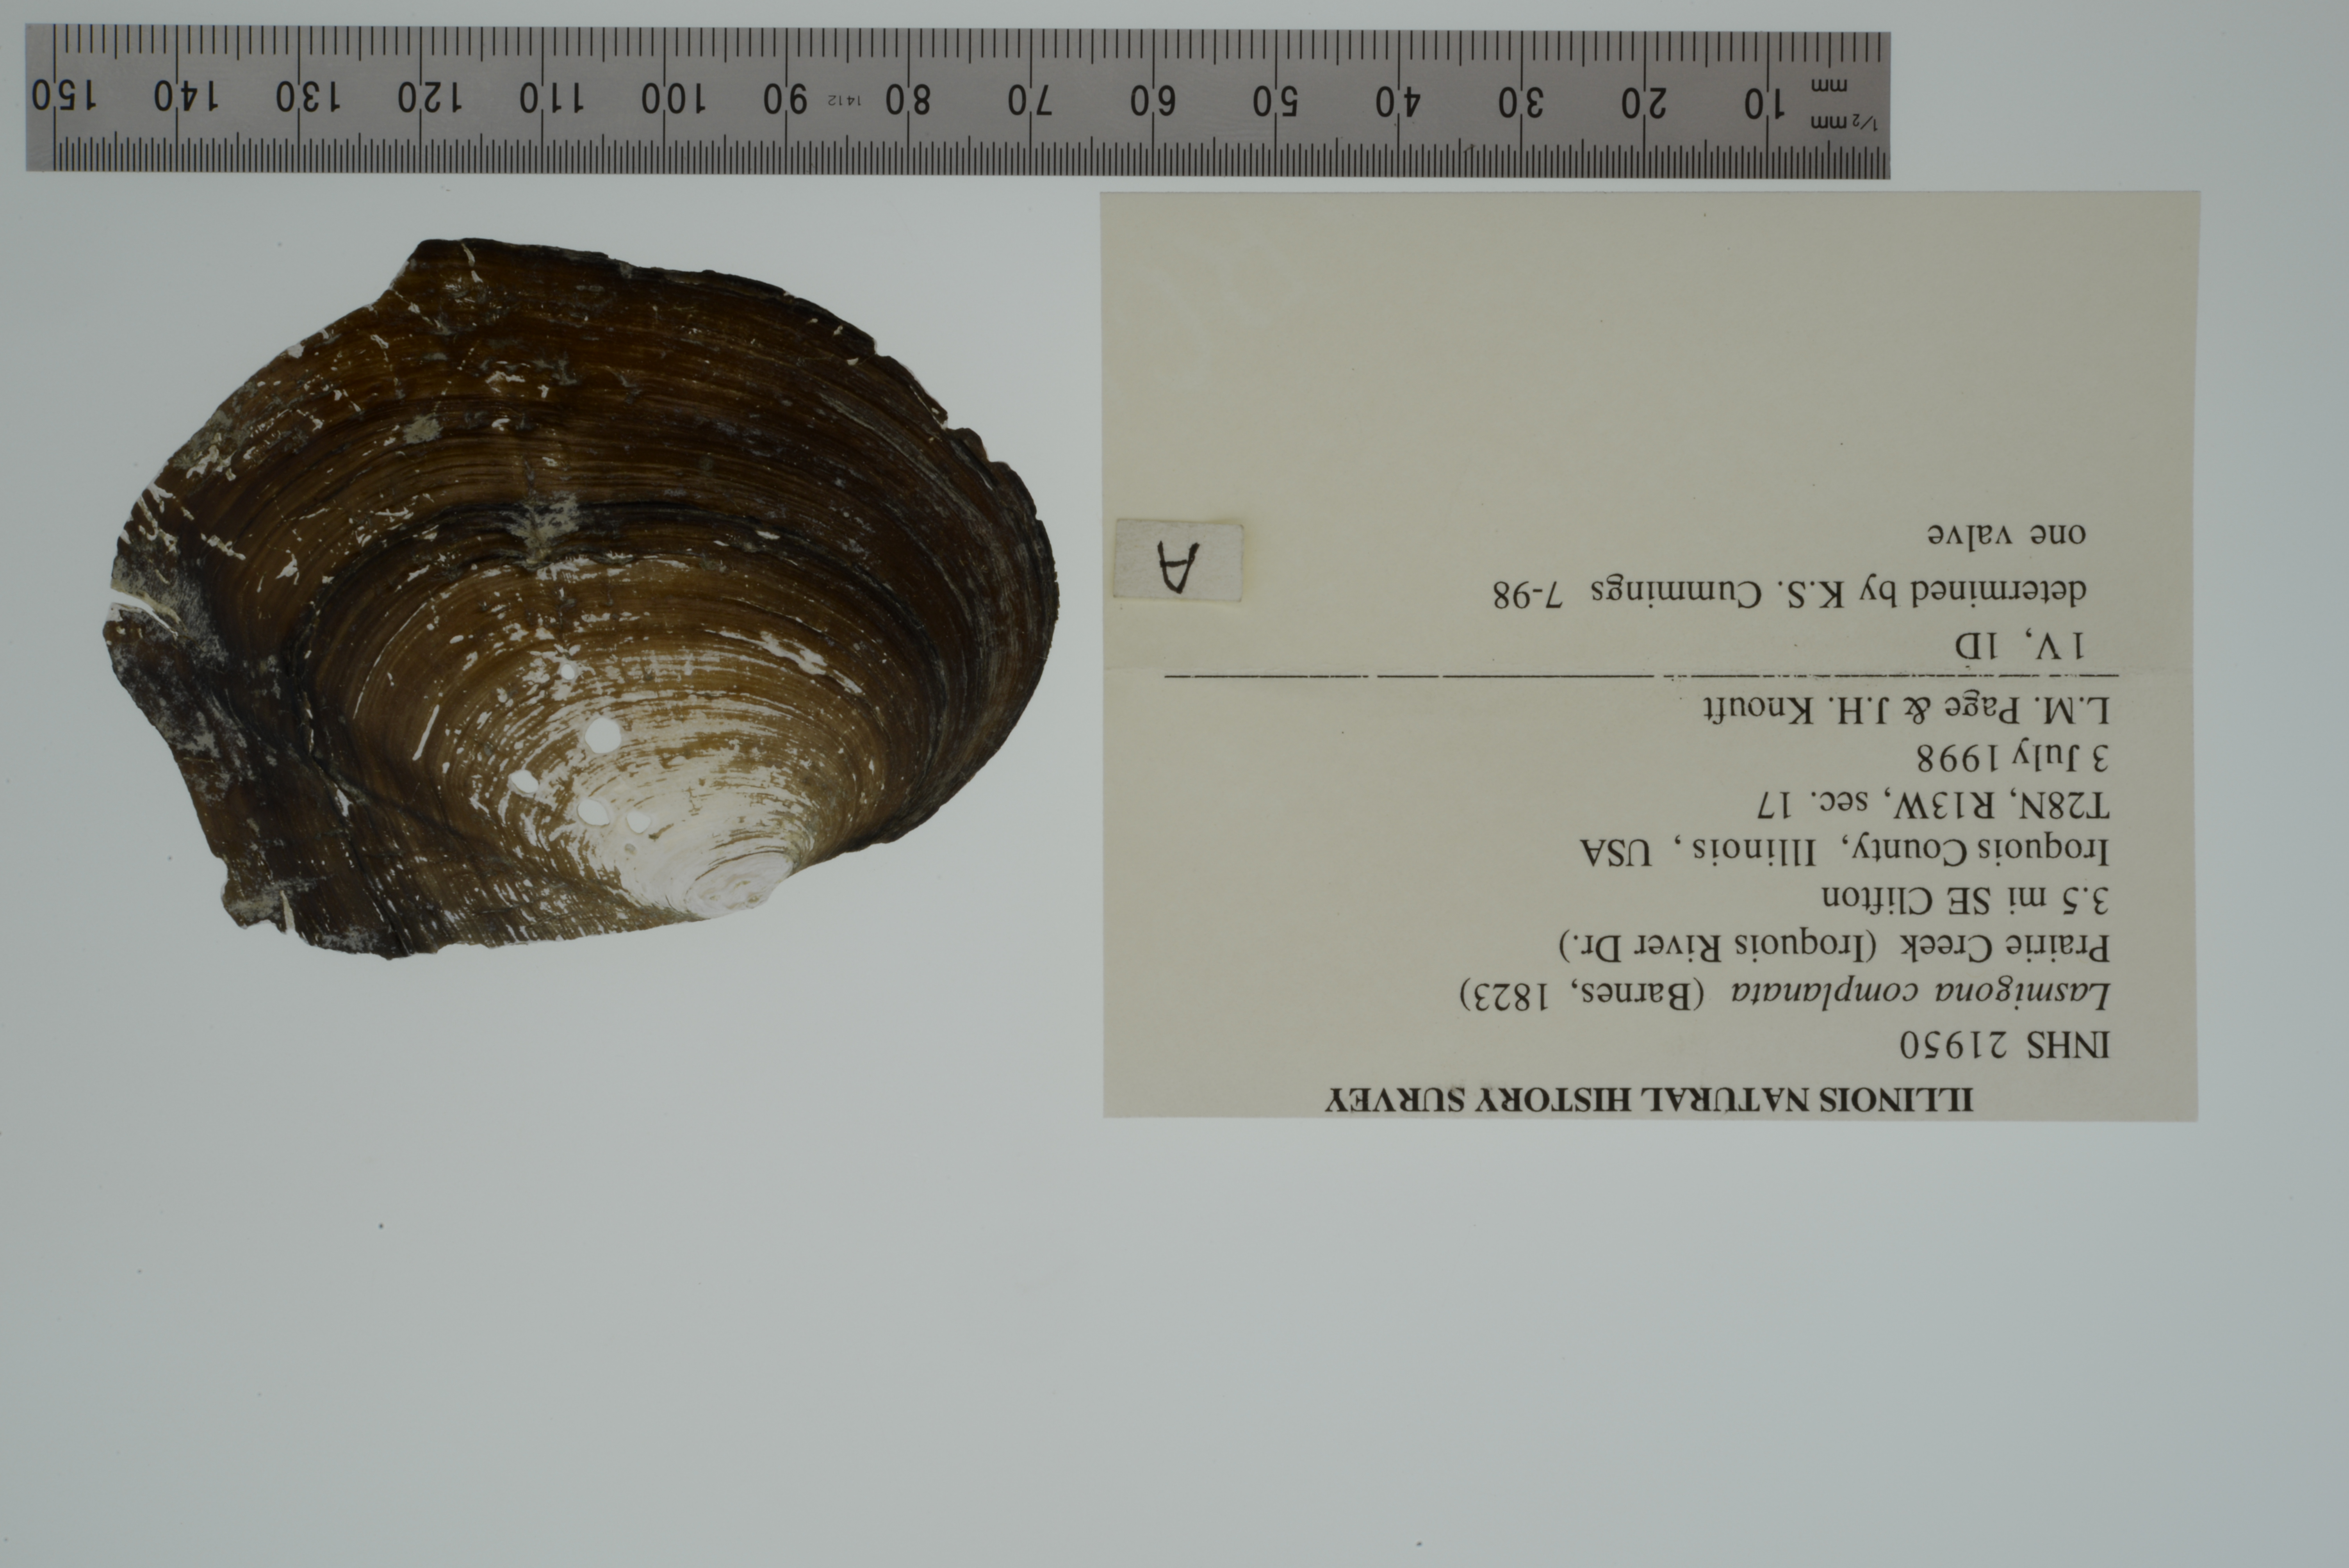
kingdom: Animalia
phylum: Mollusca
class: Bivalvia
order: Unionida
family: Unionidae
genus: Lasmigona
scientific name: Lasmigona complanata
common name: White heelsplitter
